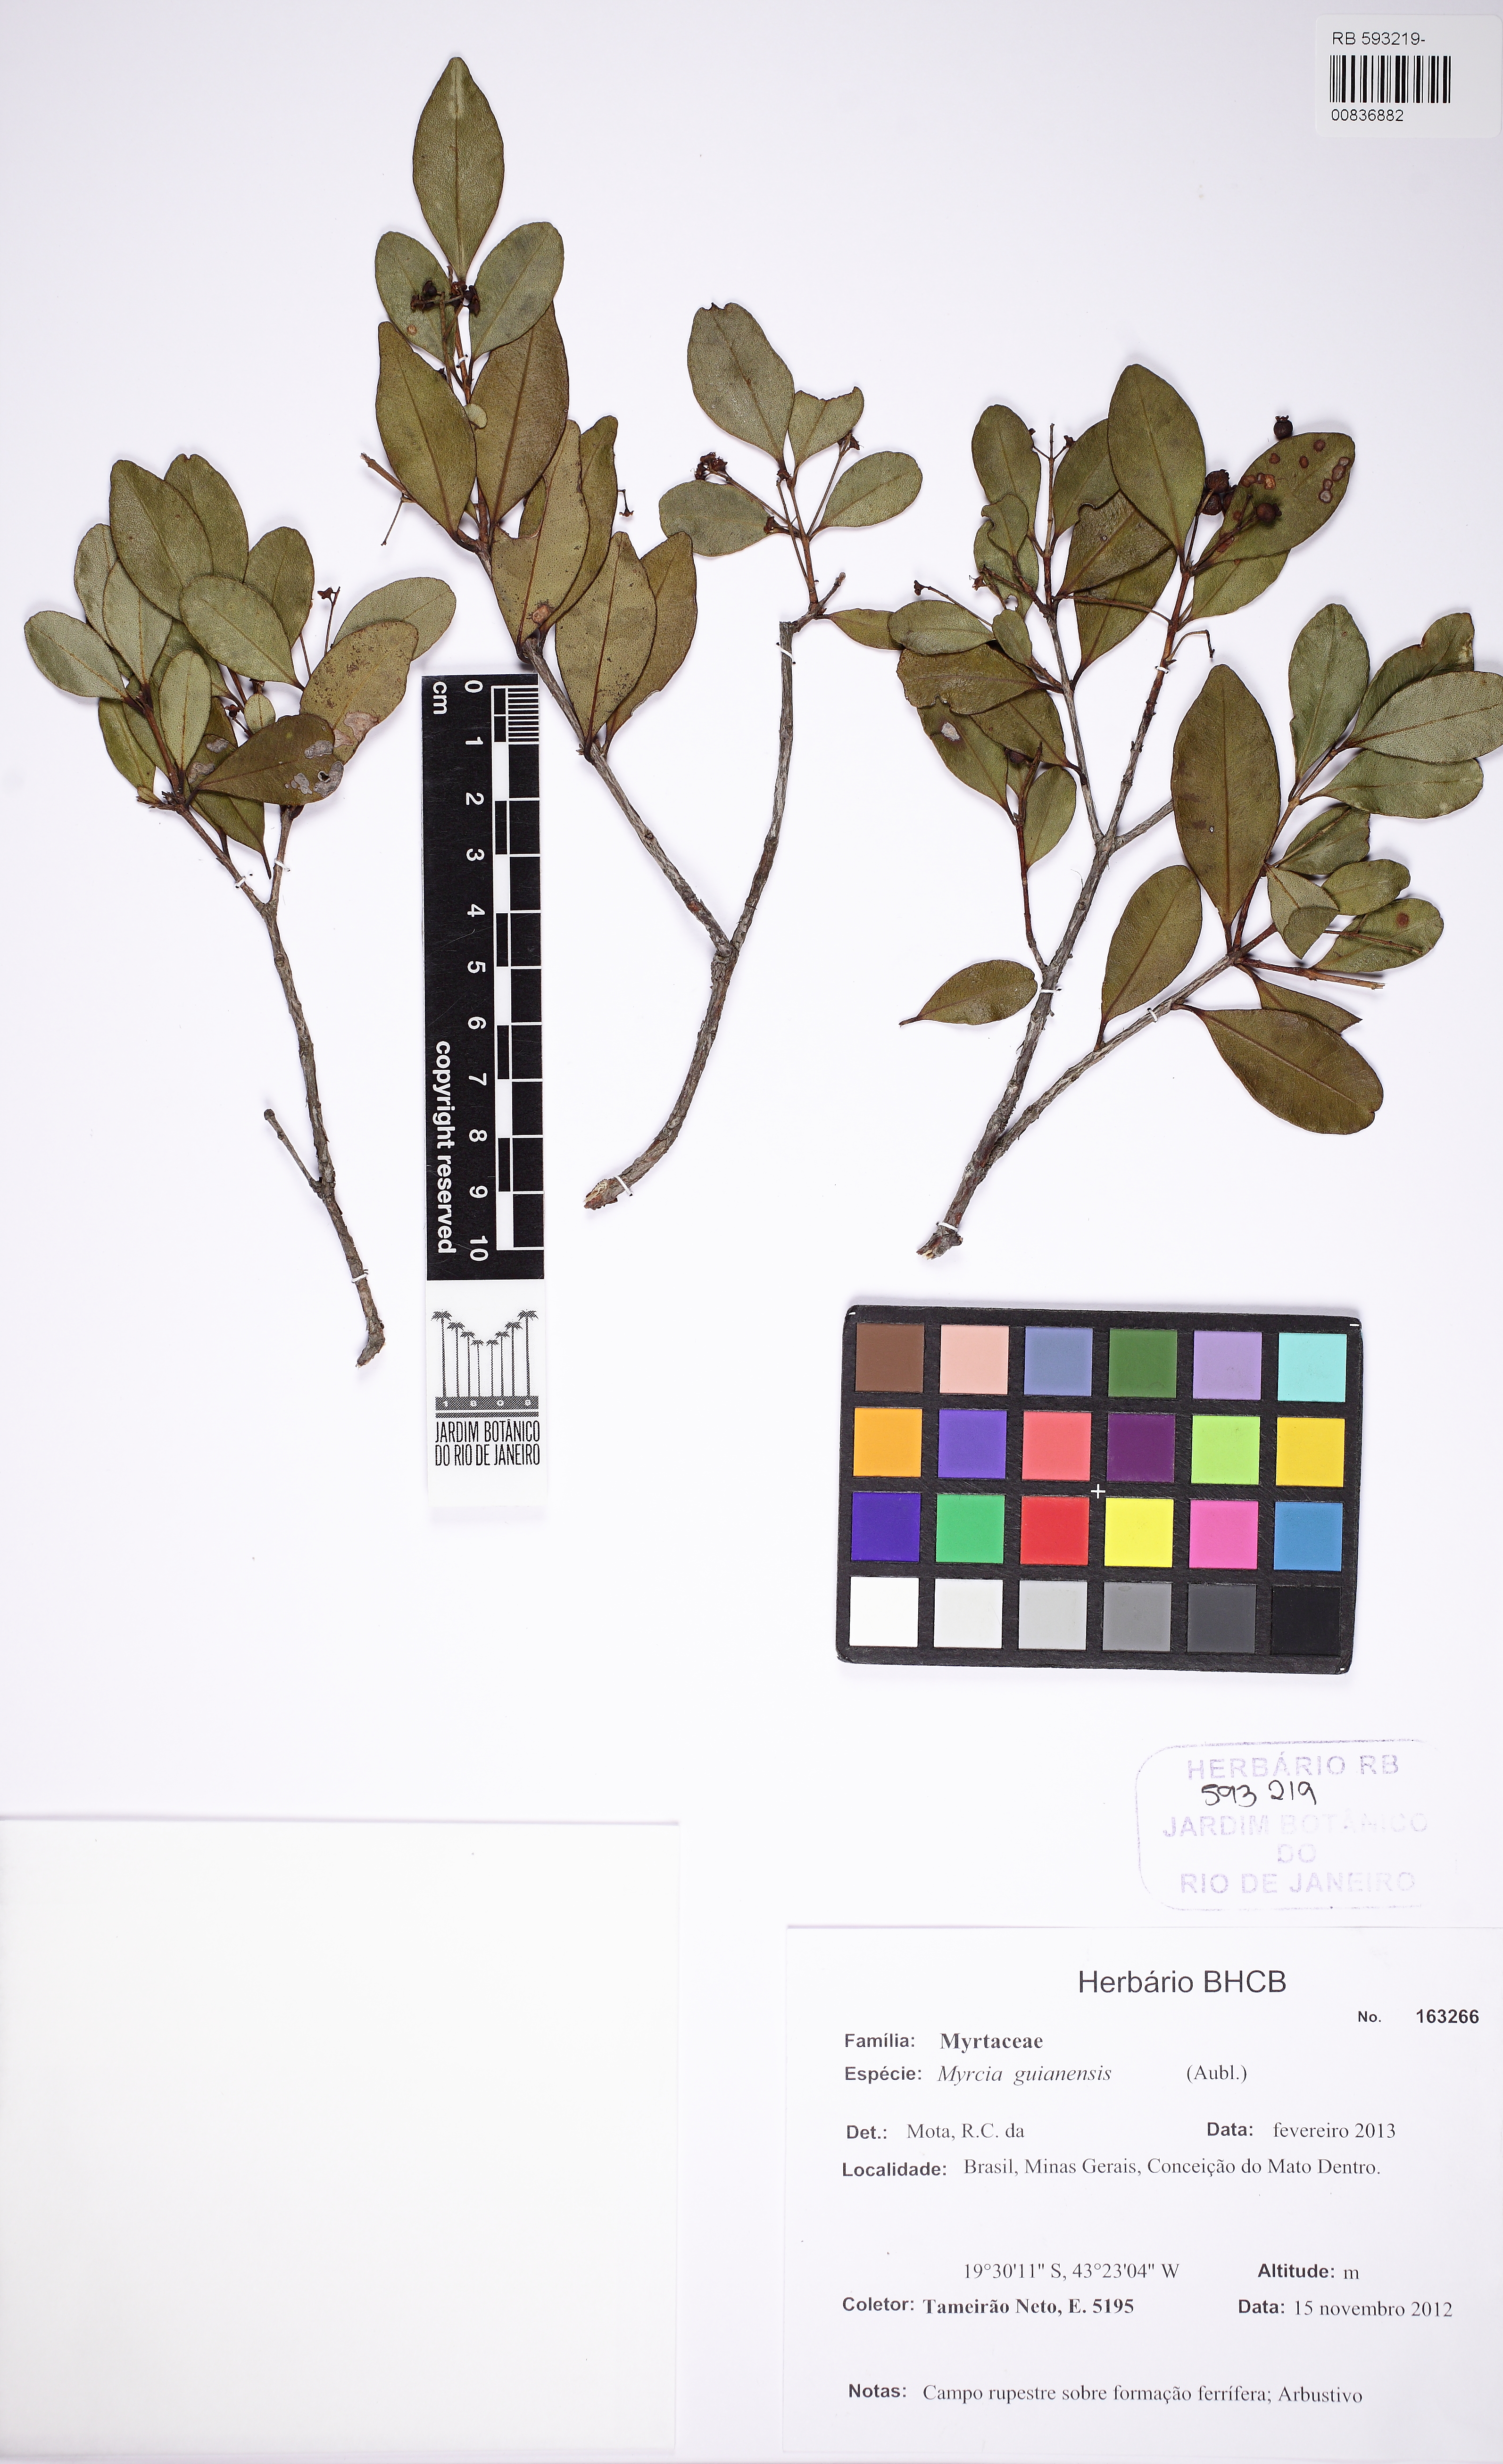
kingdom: Plantae
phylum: Tracheophyta
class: Magnoliopsida
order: Myrtales
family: Myrtaceae
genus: Myrcia
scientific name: Myrcia guianensis
